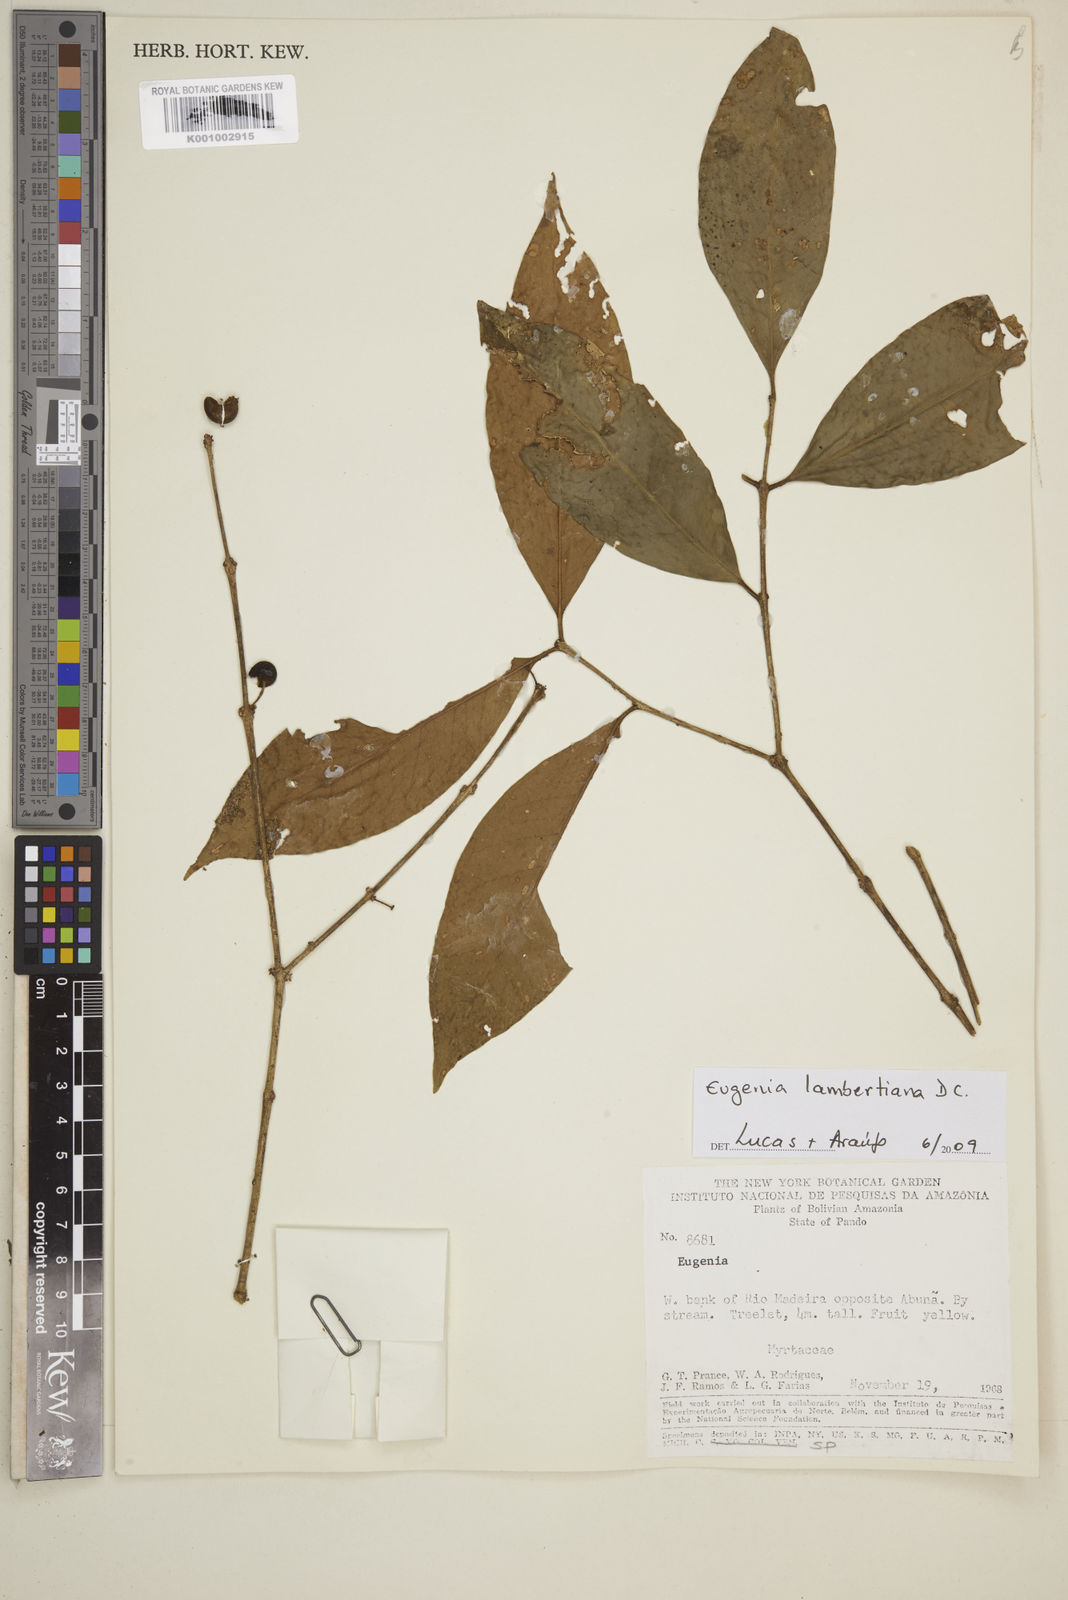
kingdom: Plantae
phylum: Tracheophyta
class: Magnoliopsida
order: Myrtales
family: Myrtaceae
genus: Eugenia
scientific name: Eugenia lambertiana
